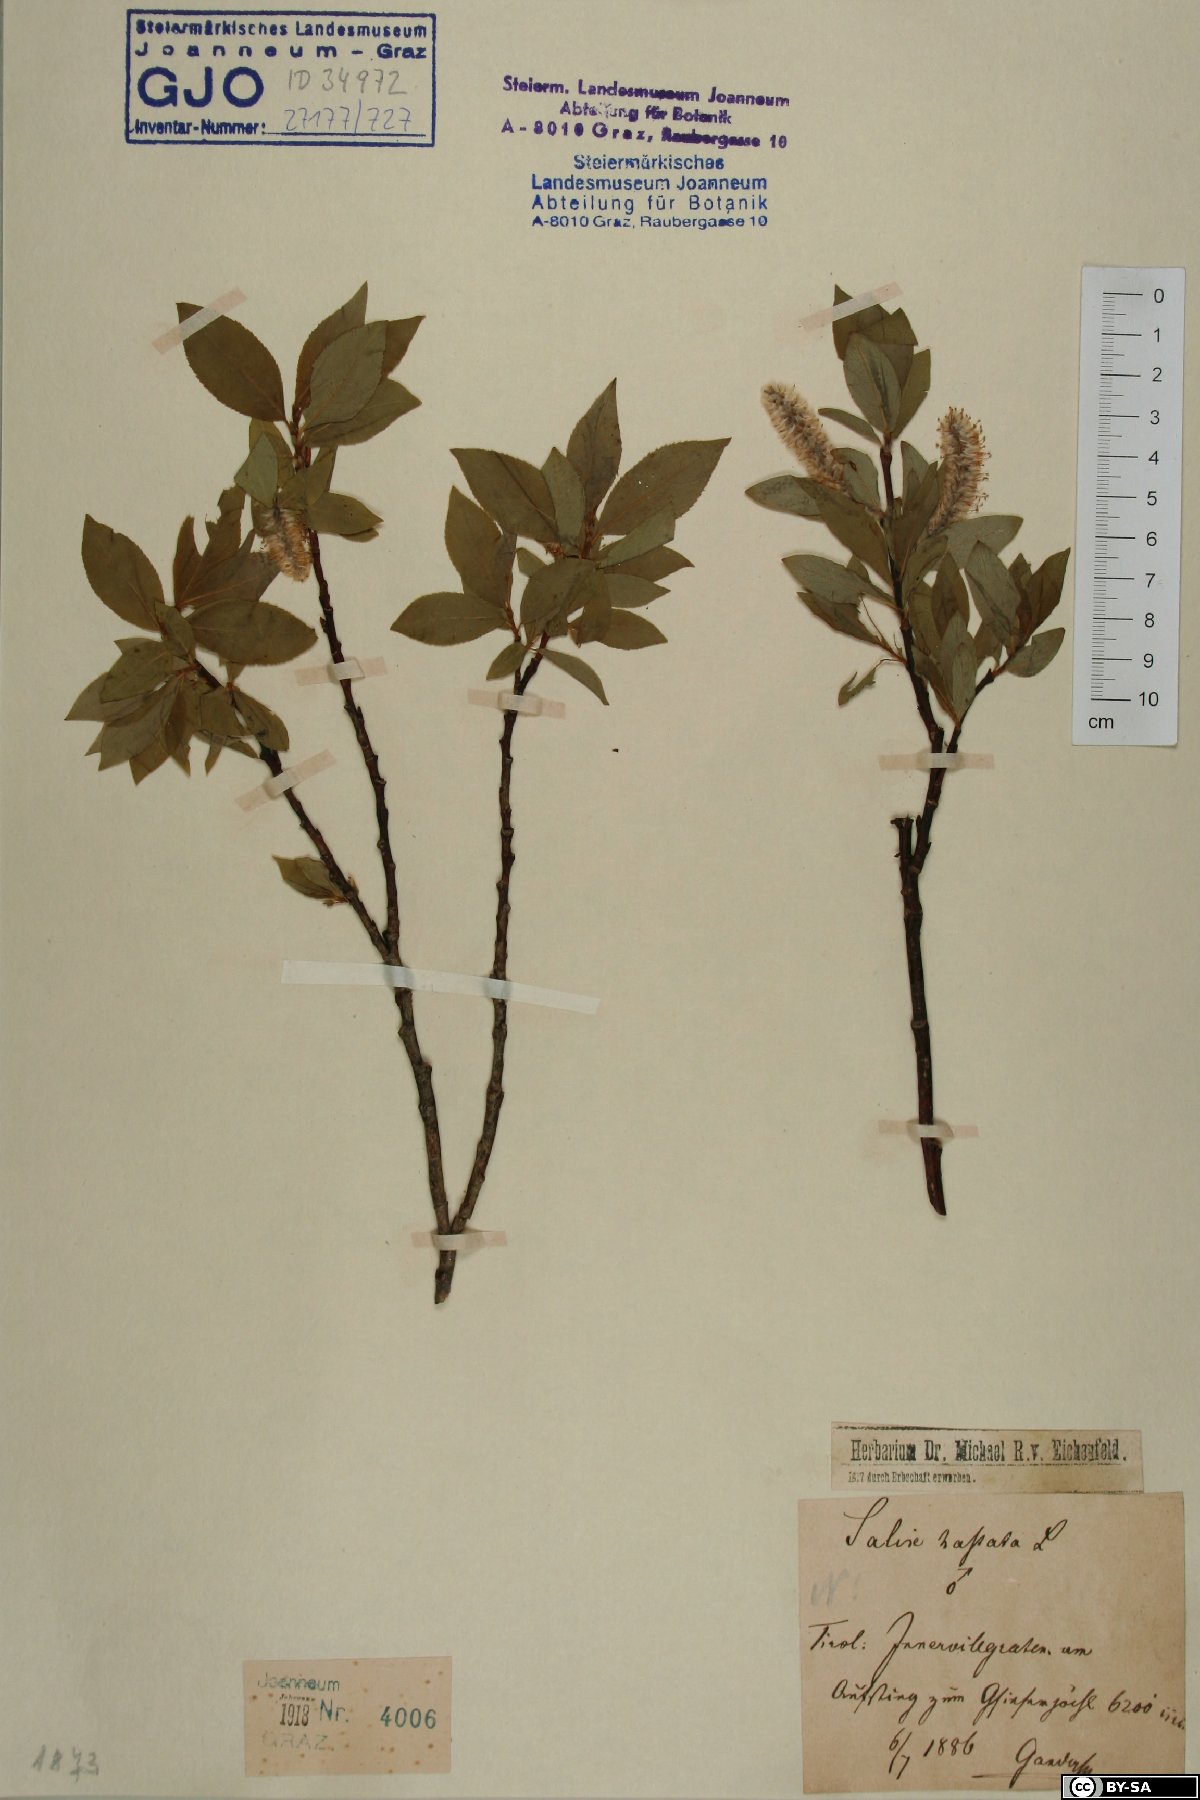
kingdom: Plantae
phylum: Tracheophyta
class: Magnoliopsida
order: Malpighiales
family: Salicaceae
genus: Salix
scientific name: Salix hastata
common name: Halberd willow
